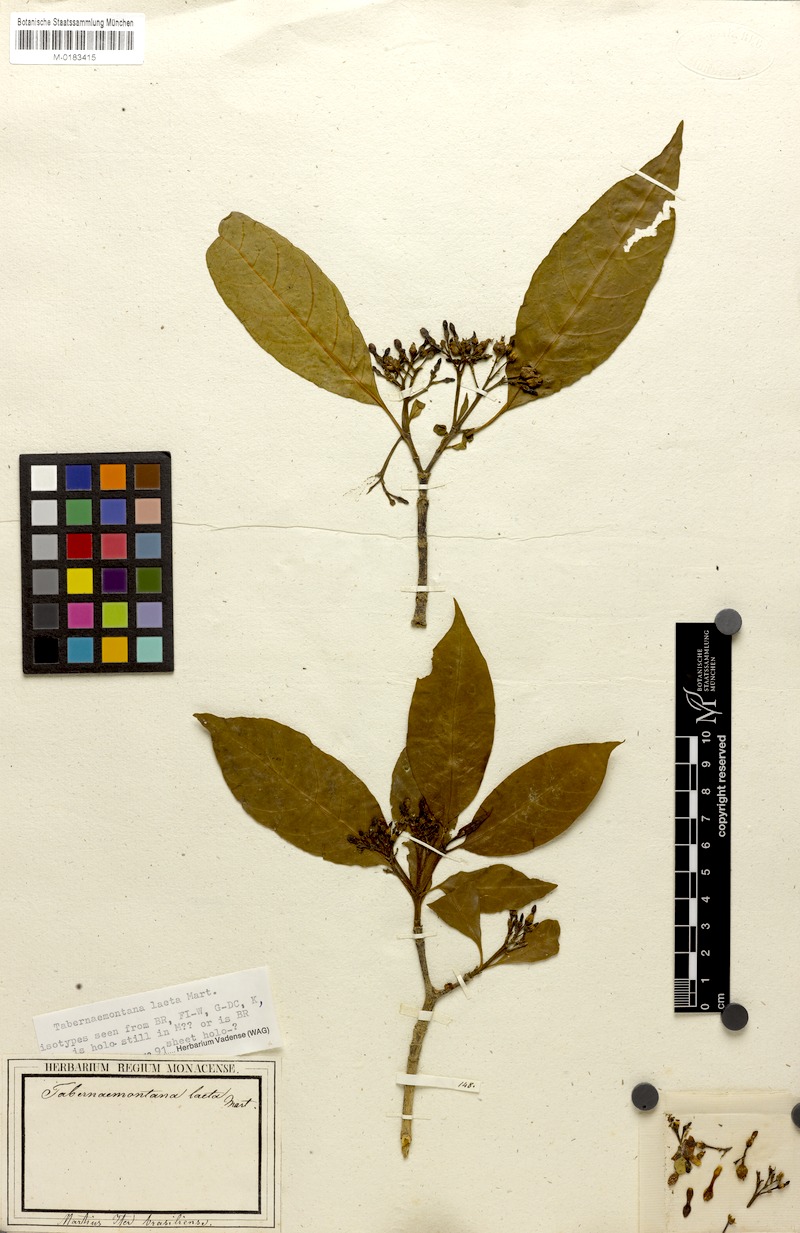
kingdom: Plantae
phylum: Tracheophyta
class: Magnoliopsida
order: Gentianales
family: Apocynaceae
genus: Tabernaemontana
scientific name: Tabernaemontana laeta
